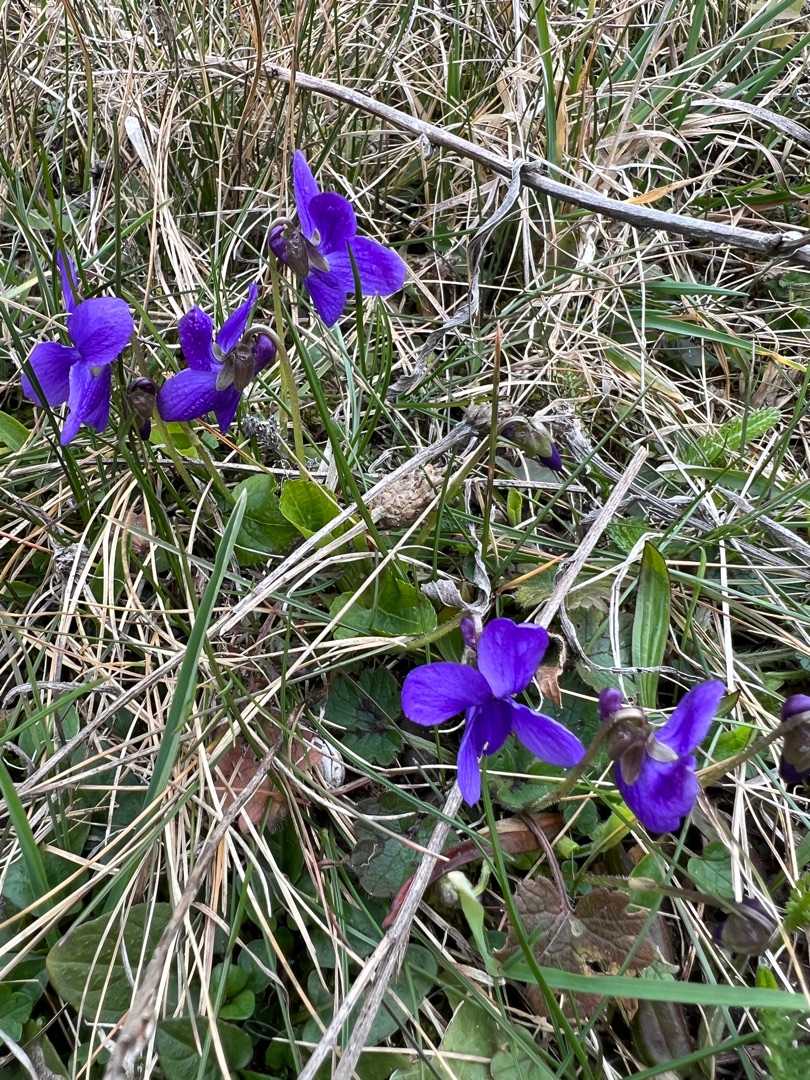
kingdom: Plantae
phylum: Tracheophyta
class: Magnoliopsida
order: Malpighiales
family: Violaceae
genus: Viola
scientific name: Viola odorata
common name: Marts-viol
